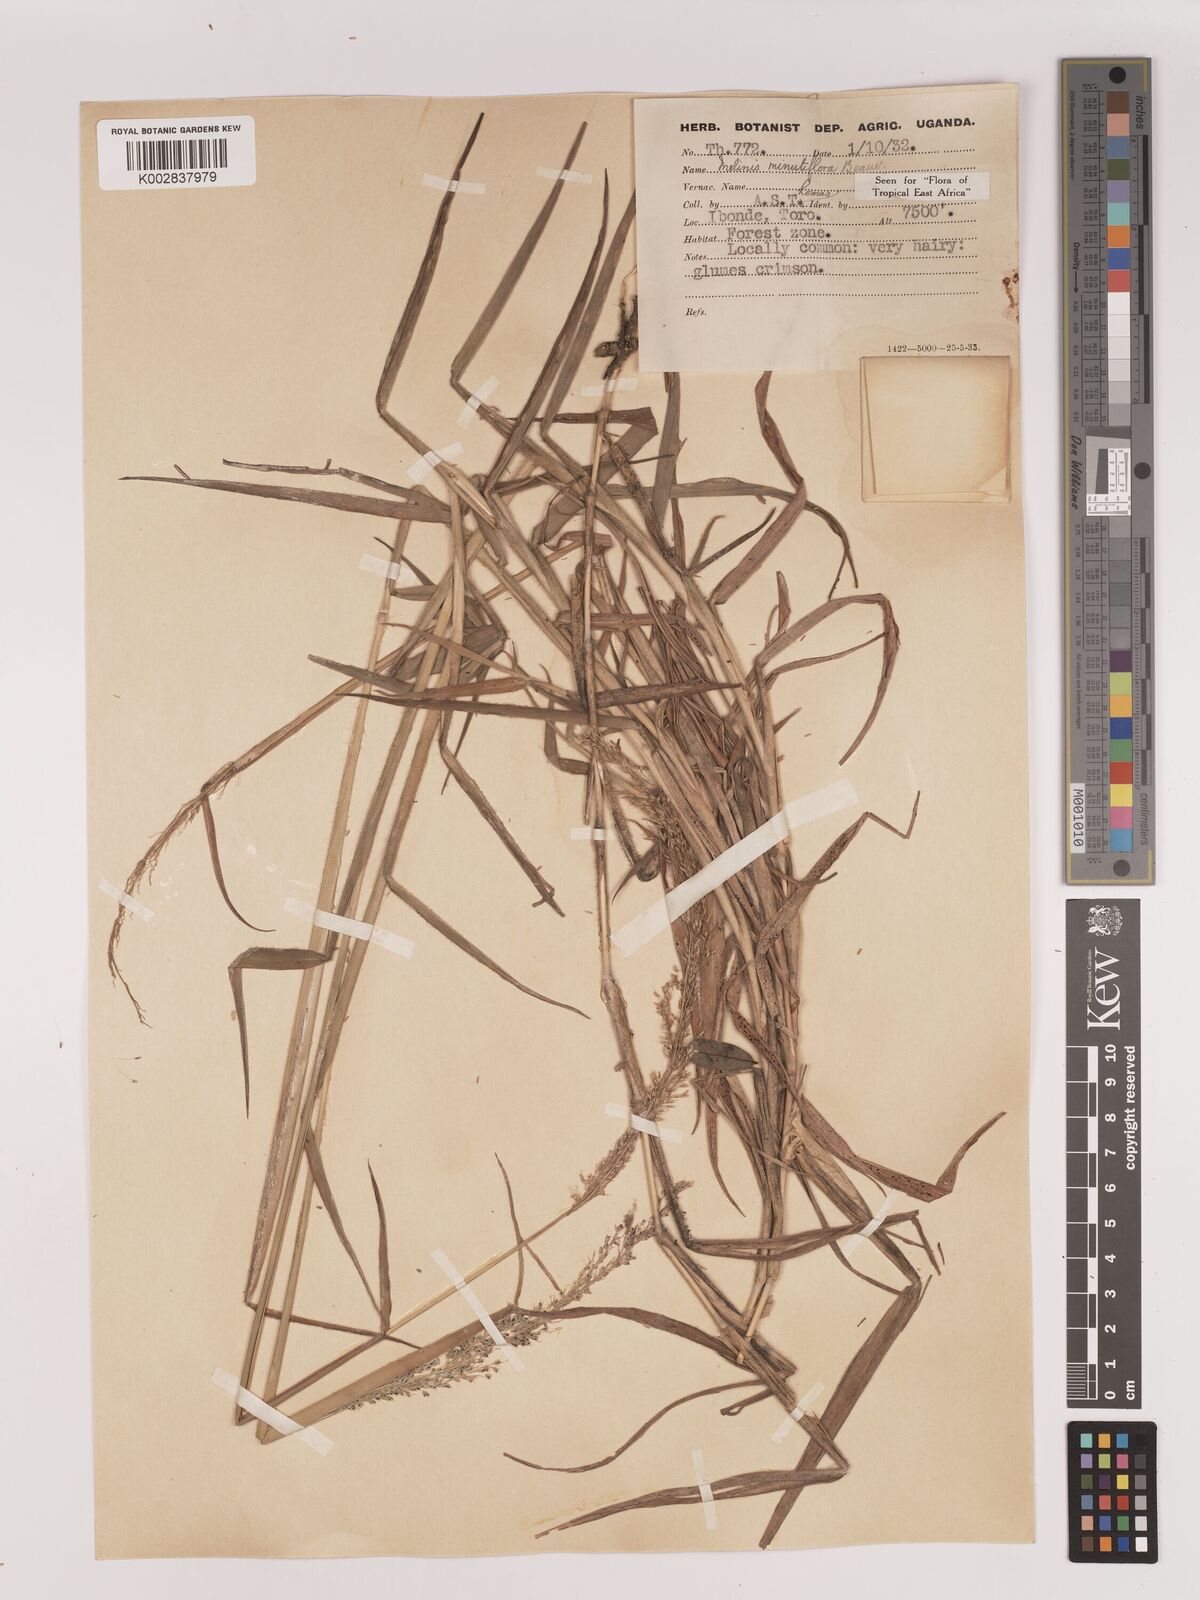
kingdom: Plantae
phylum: Tracheophyta
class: Liliopsida
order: Poales
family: Poaceae
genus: Melinis
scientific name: Melinis minutiflora
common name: Molassesgrass
